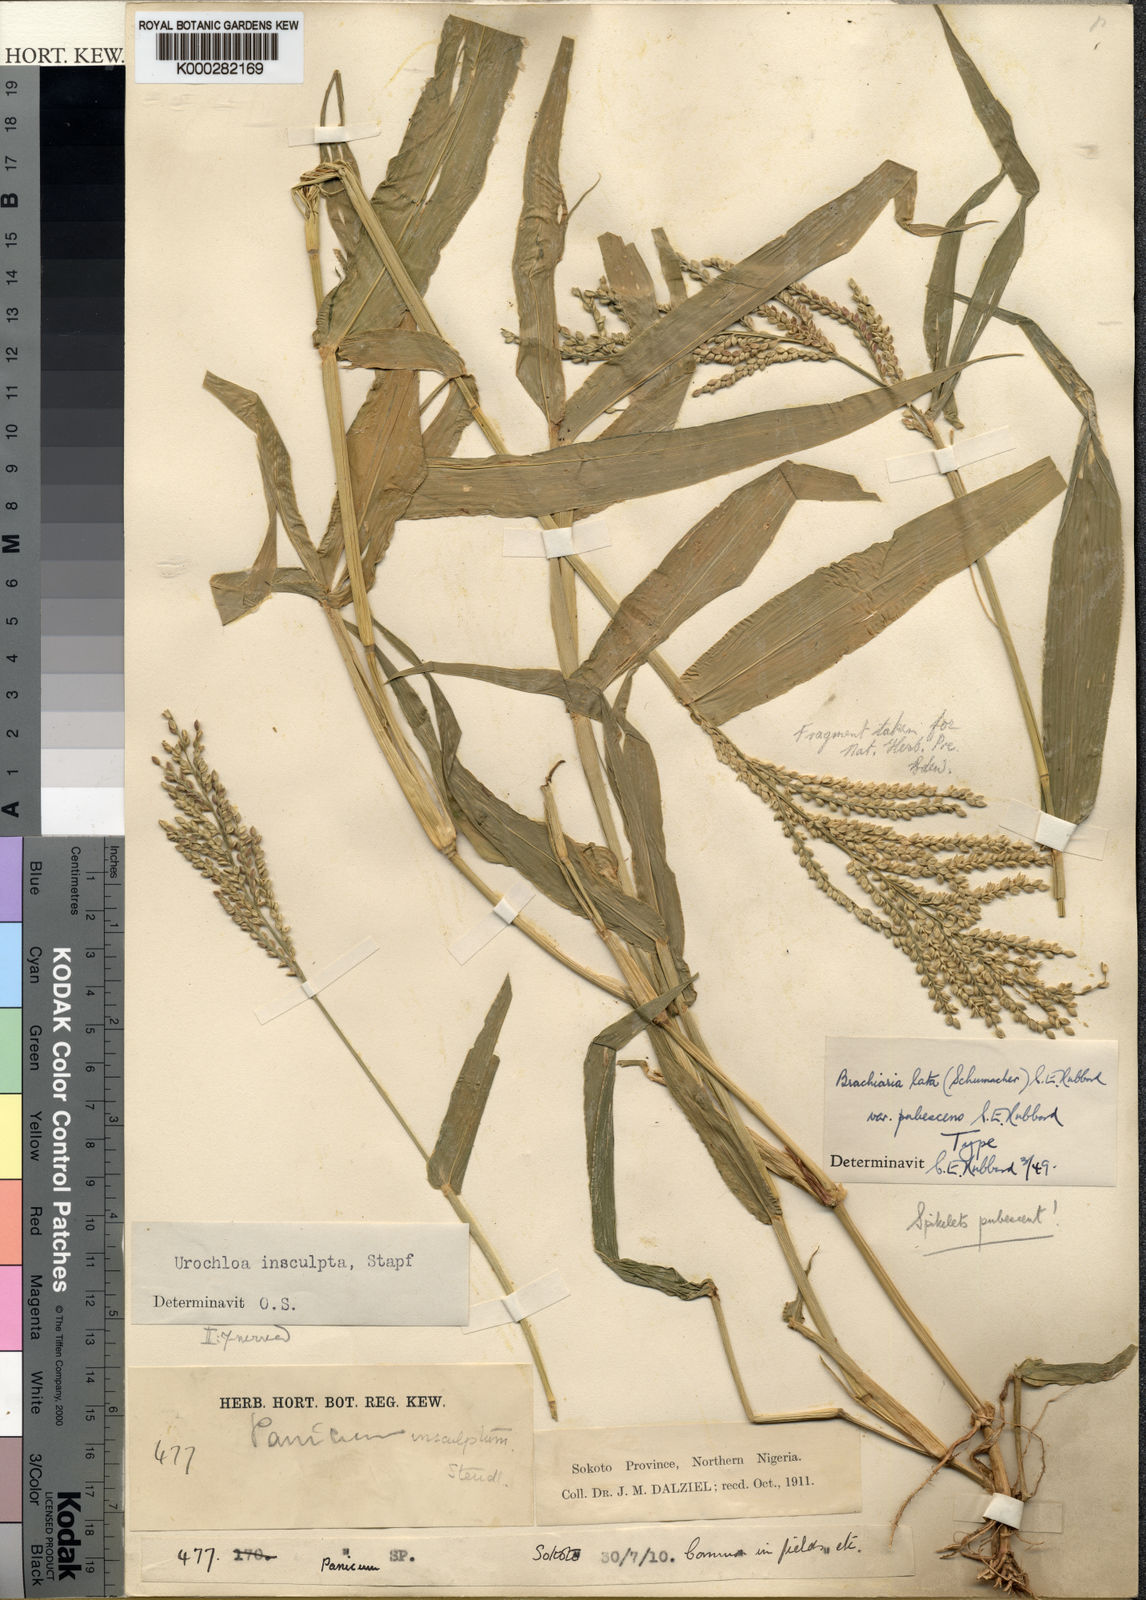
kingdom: Plantae
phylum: Tracheophyta
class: Liliopsida
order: Poales
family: Poaceae
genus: Urochloa
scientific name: Urochloa lata
